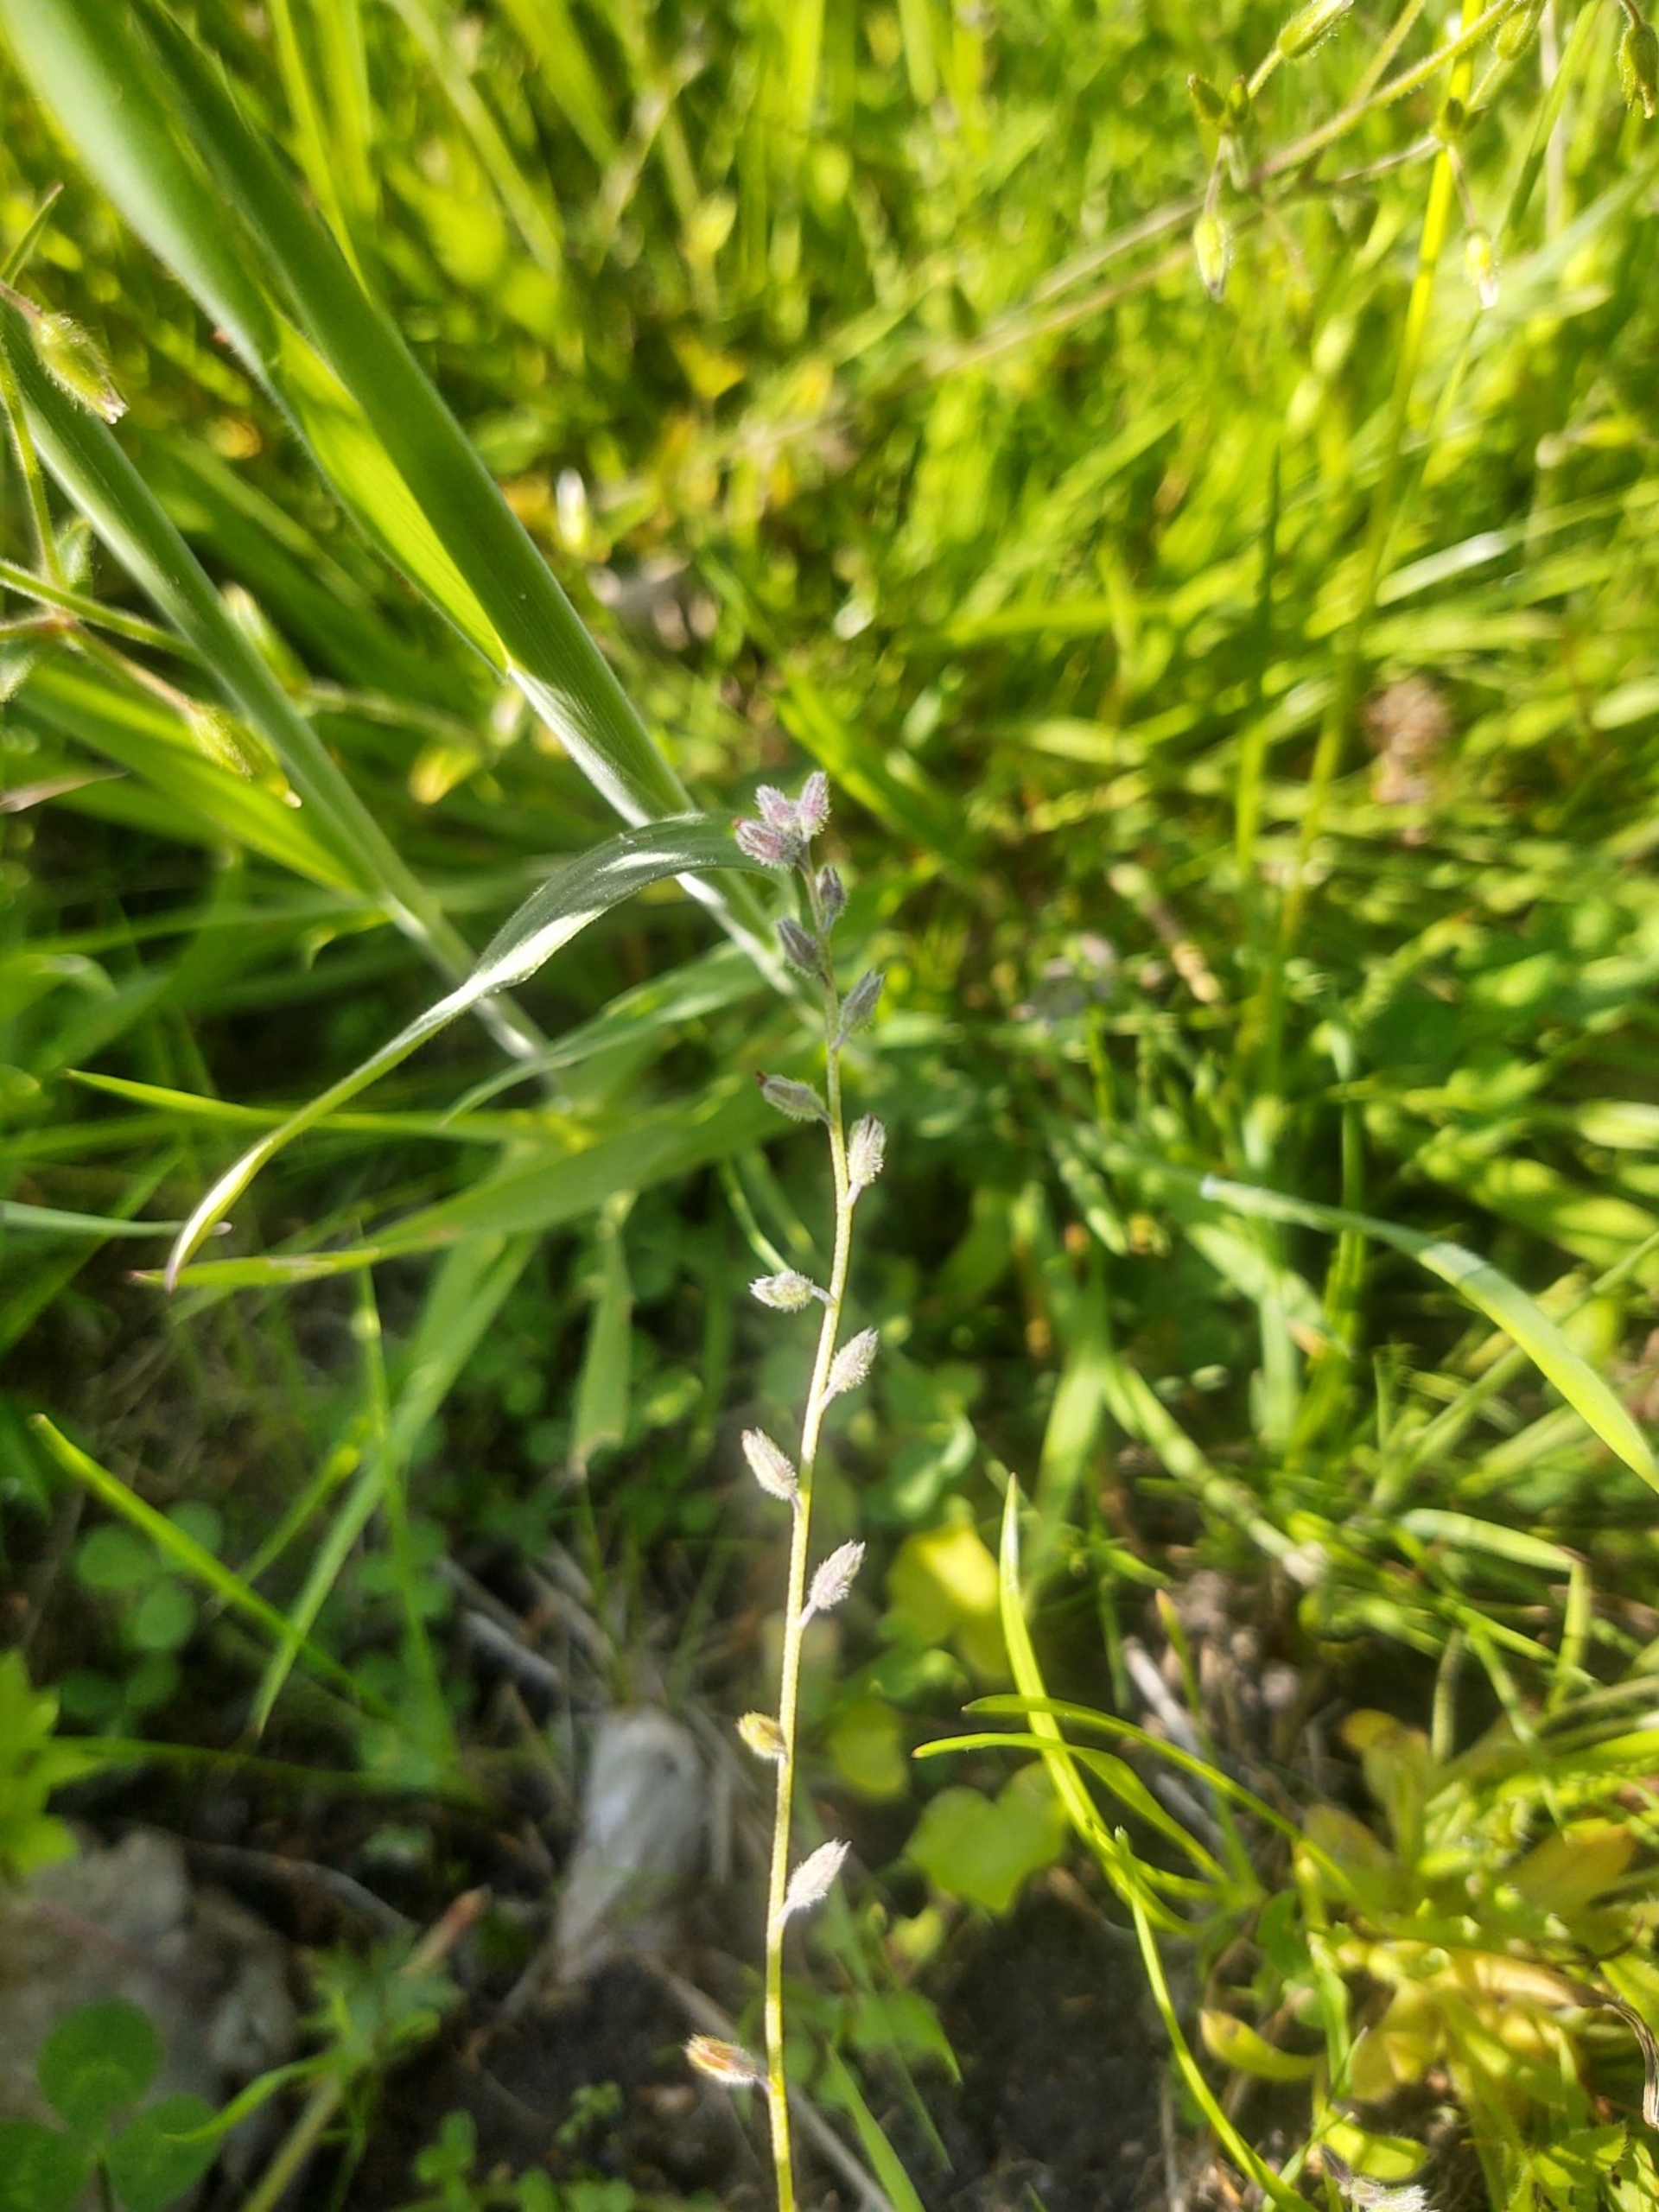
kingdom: Plantae
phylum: Tracheophyta
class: Magnoliopsida
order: Boraginales
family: Boraginaceae
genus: Myosotis
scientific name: Myosotis stricta
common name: Rank forglemmigej
